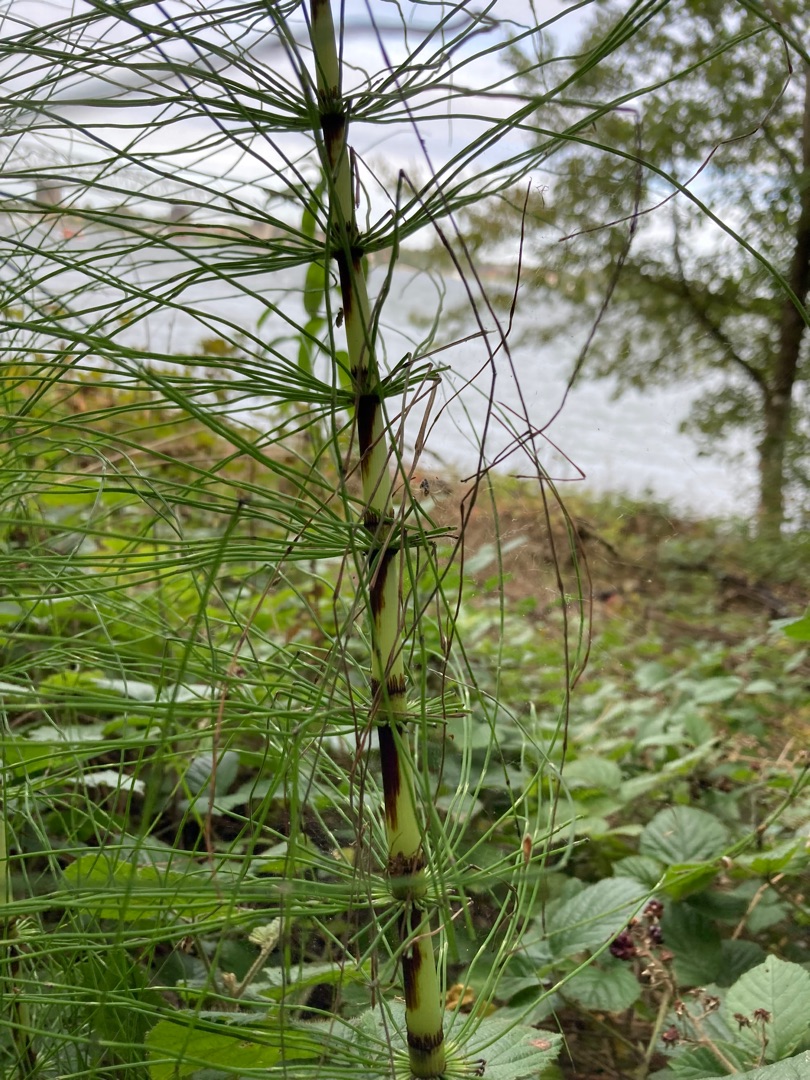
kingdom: Plantae
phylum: Tracheophyta
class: Polypodiopsida
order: Equisetales
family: Equisetaceae
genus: Equisetum
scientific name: Equisetum telmateia
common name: Elfenbens-padderok
